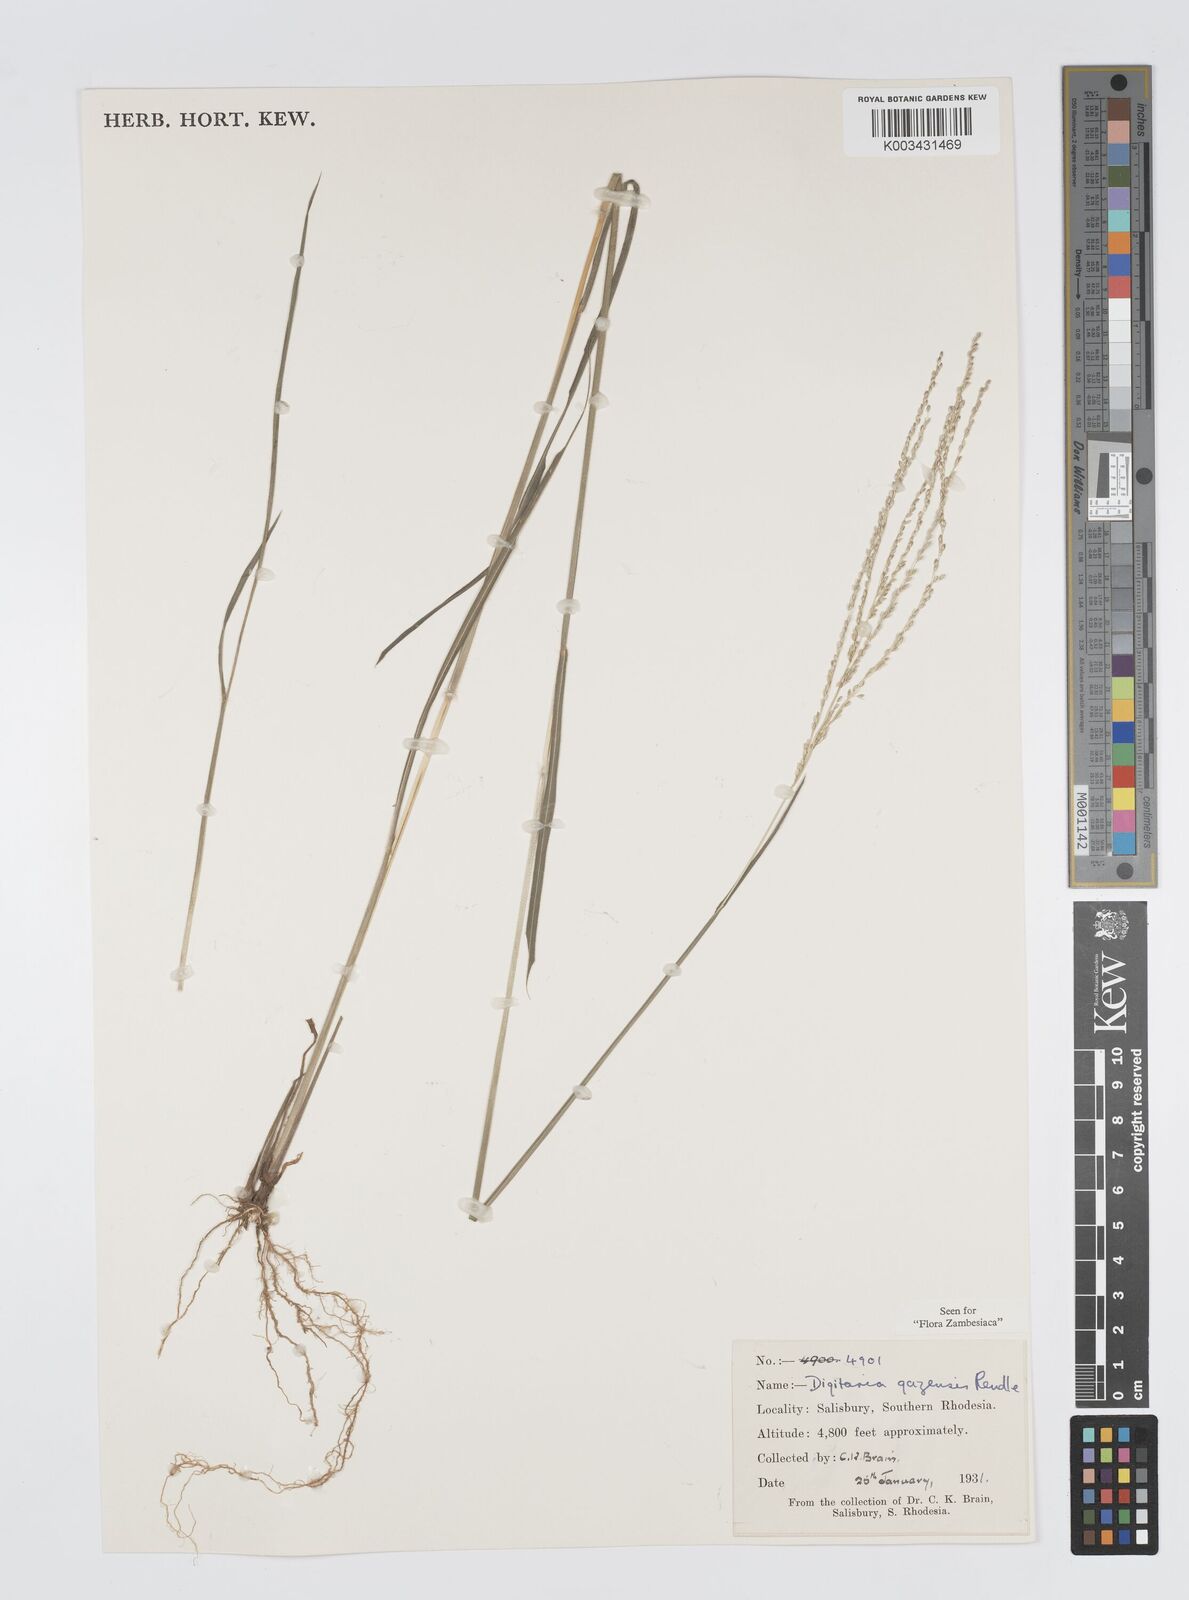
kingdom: Plantae
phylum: Tracheophyta
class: Liliopsida
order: Poales
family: Poaceae
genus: Digitaria
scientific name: Digitaria gazensis
